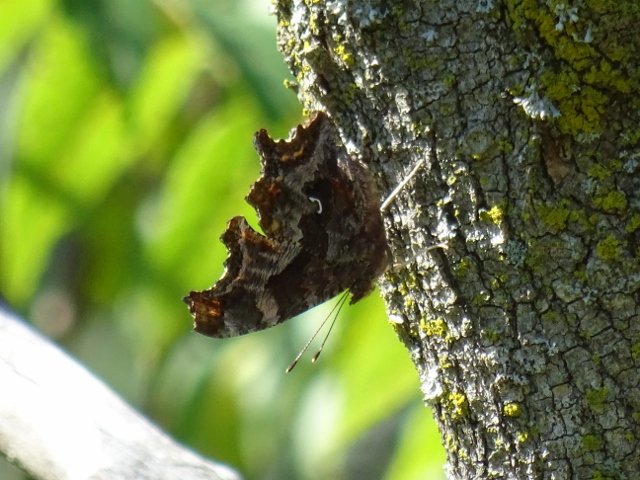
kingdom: Animalia
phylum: Arthropoda
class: Insecta
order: Lepidoptera
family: Nymphalidae
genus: Polygonia
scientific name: Polygonia comma
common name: Eastern Comma
